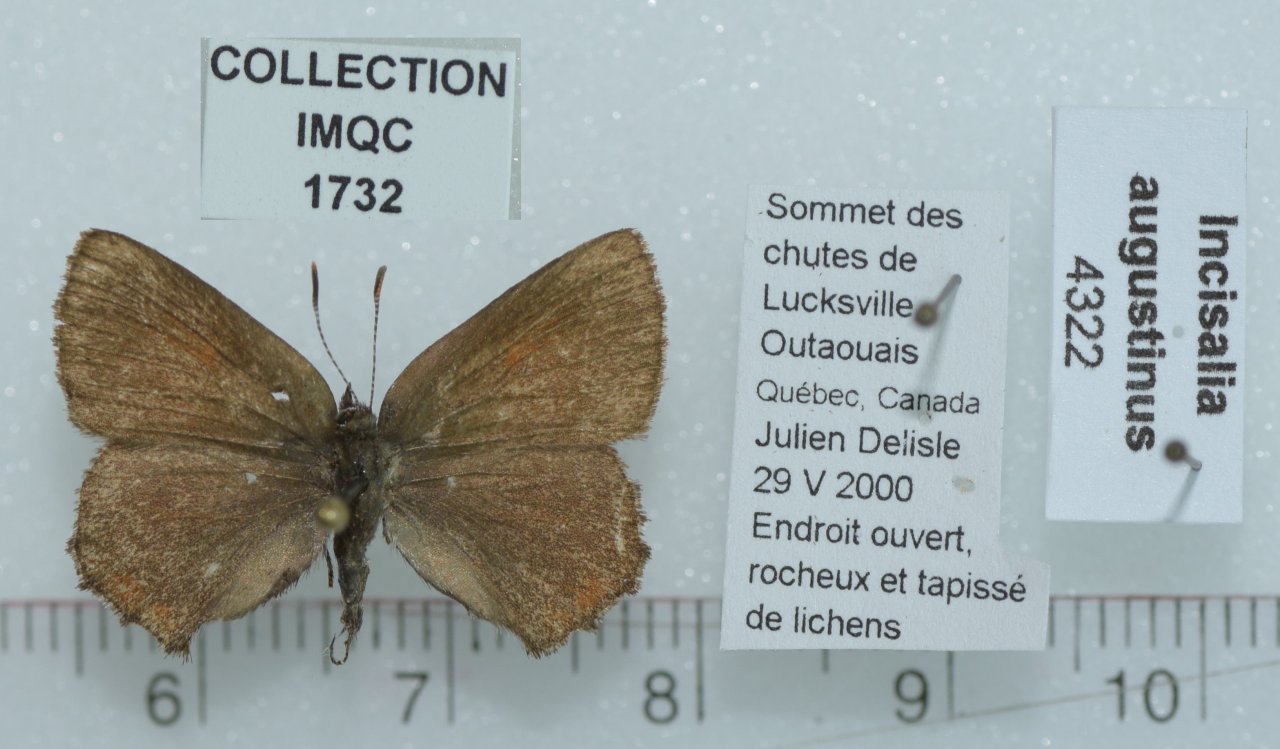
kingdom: Animalia
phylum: Arthropoda
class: Insecta
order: Lepidoptera
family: Lycaenidae
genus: Incisalia
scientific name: Incisalia irioides
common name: Brown Elfin
